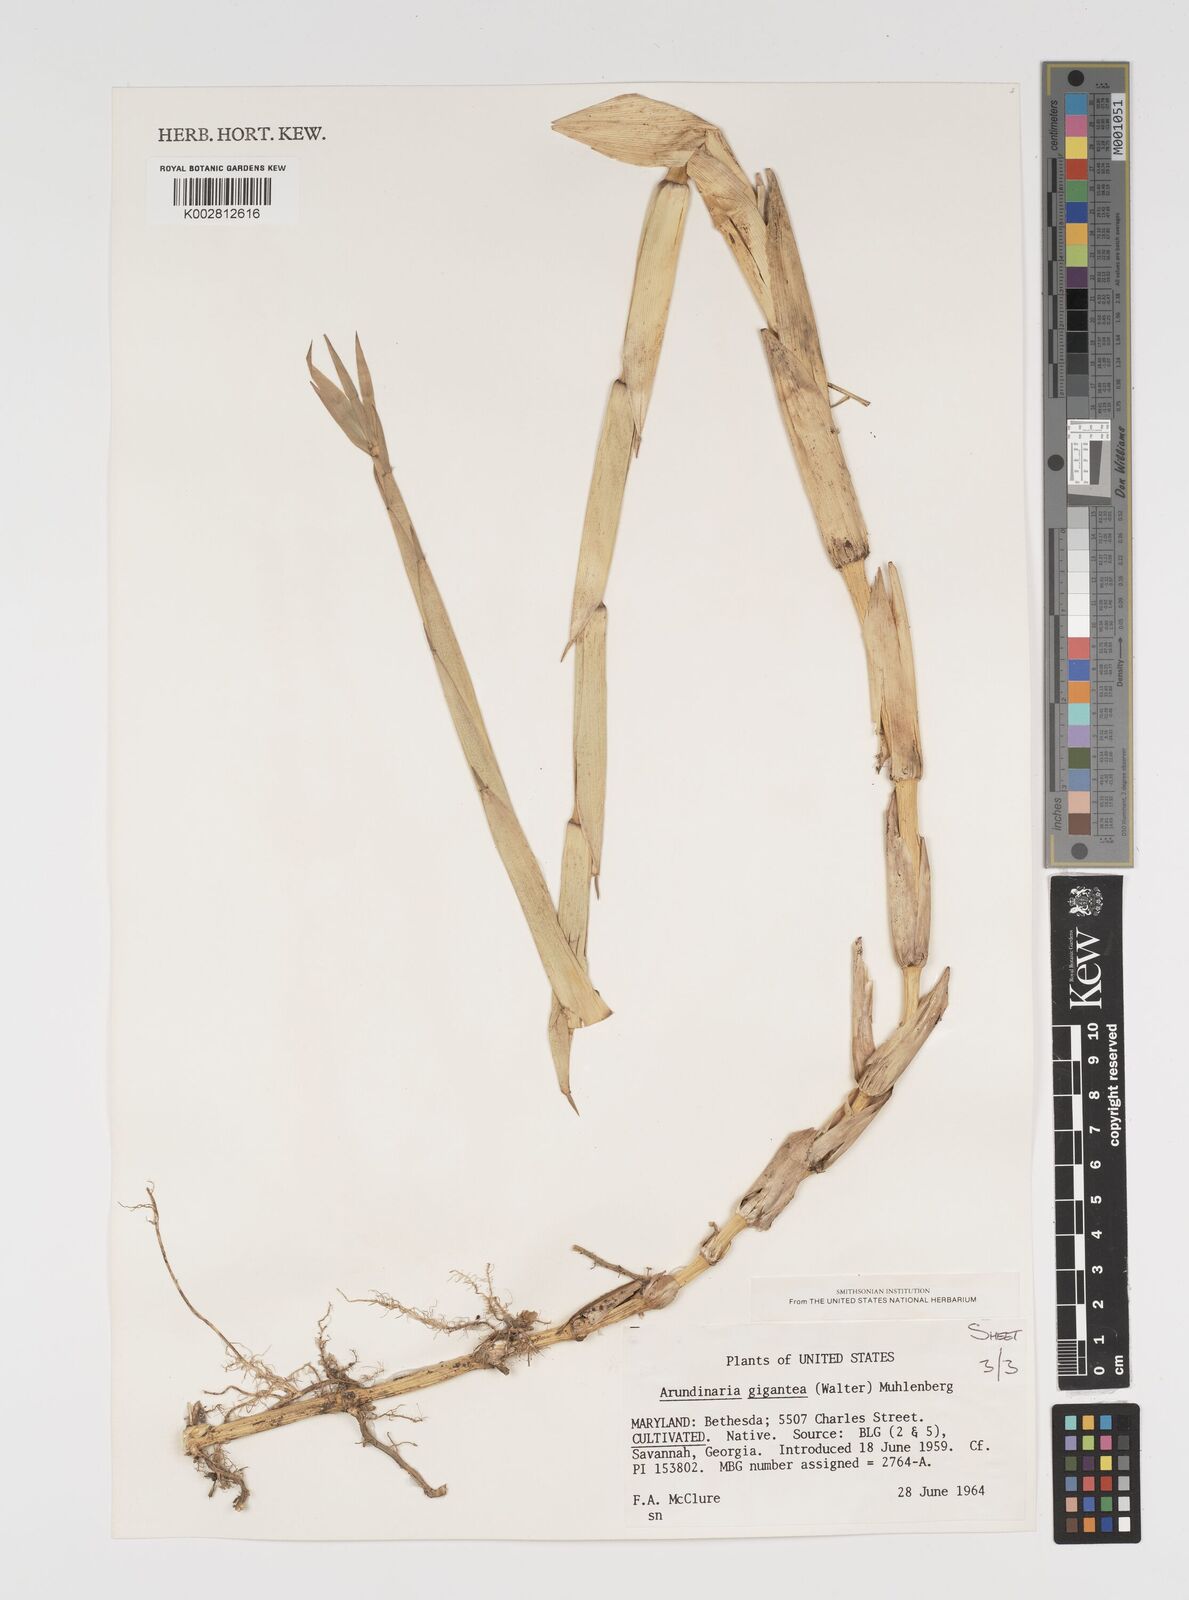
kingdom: Plantae
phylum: Tracheophyta
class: Liliopsida
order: Poales
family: Poaceae
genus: Arundinaria
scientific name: Arundinaria
